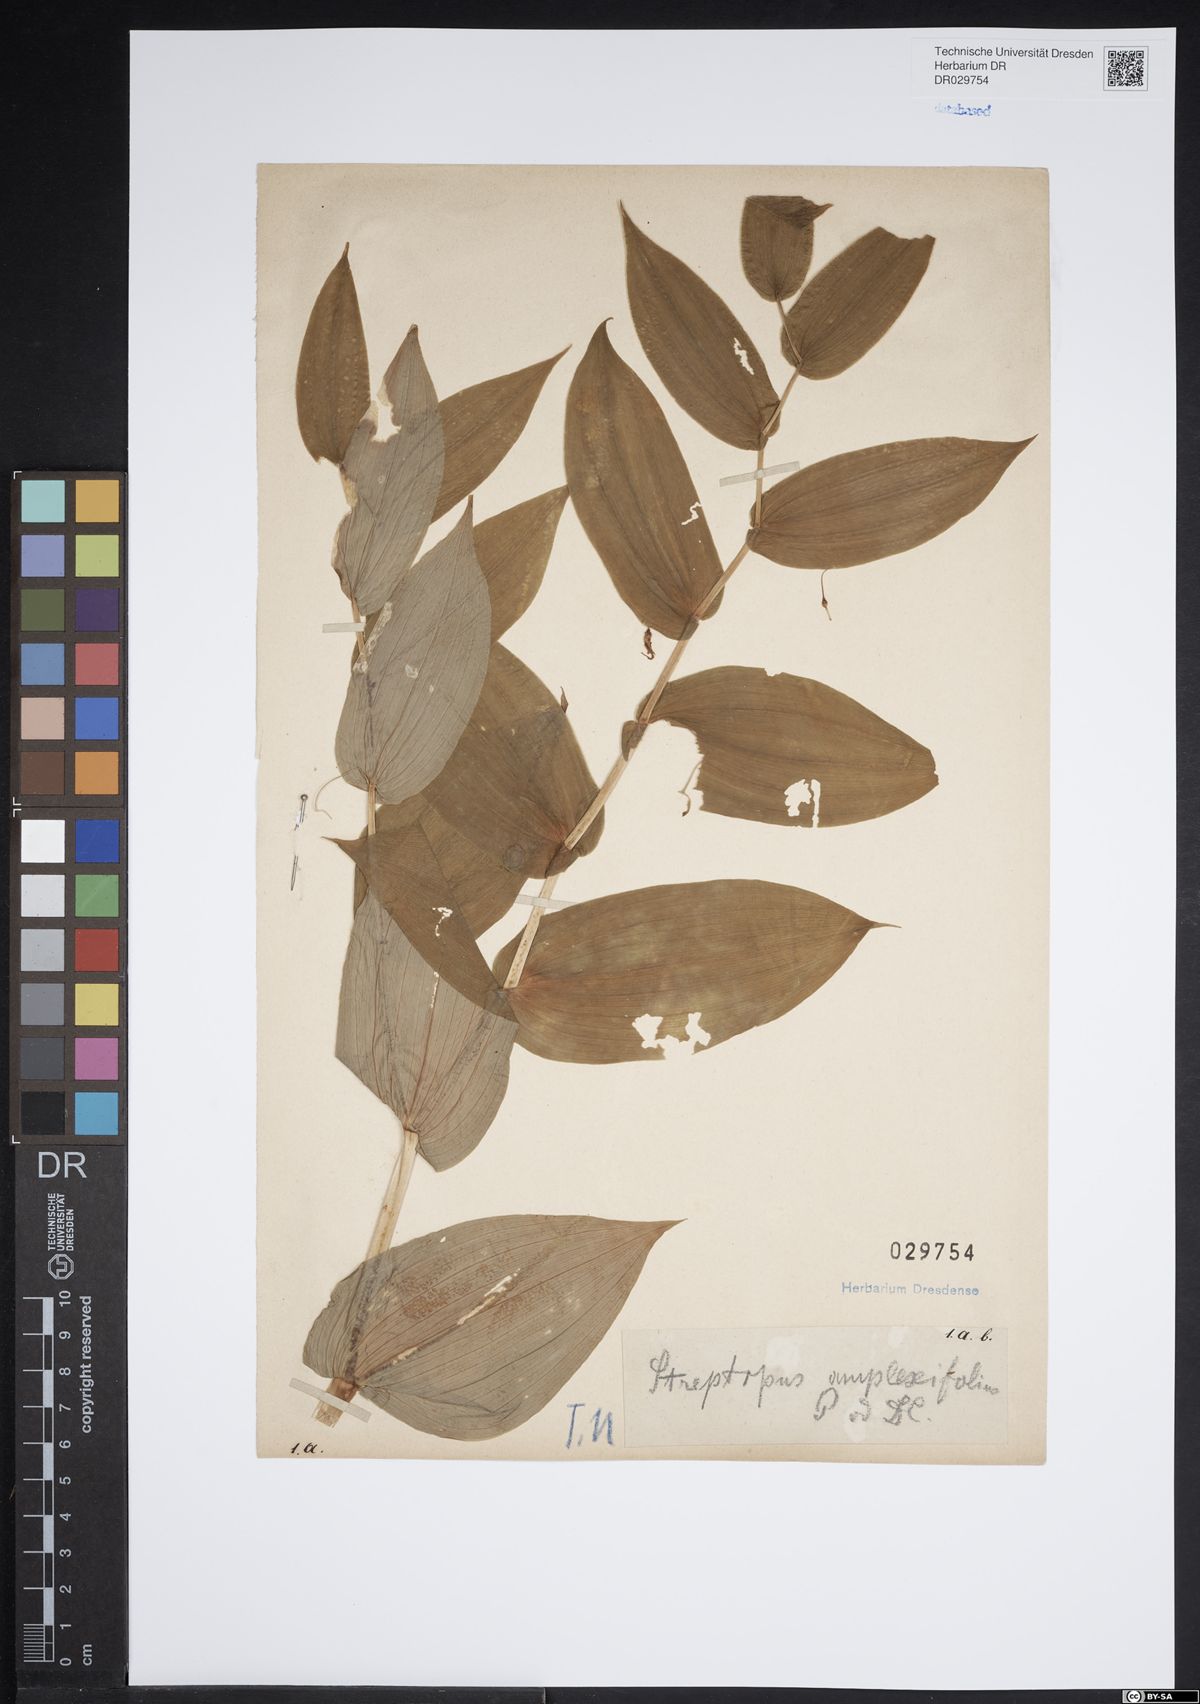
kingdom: Plantae
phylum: Tracheophyta
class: Liliopsida
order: Liliales
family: Liliaceae
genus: Streptopus
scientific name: Streptopus amplexifolius
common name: Clasp twisted stalk
